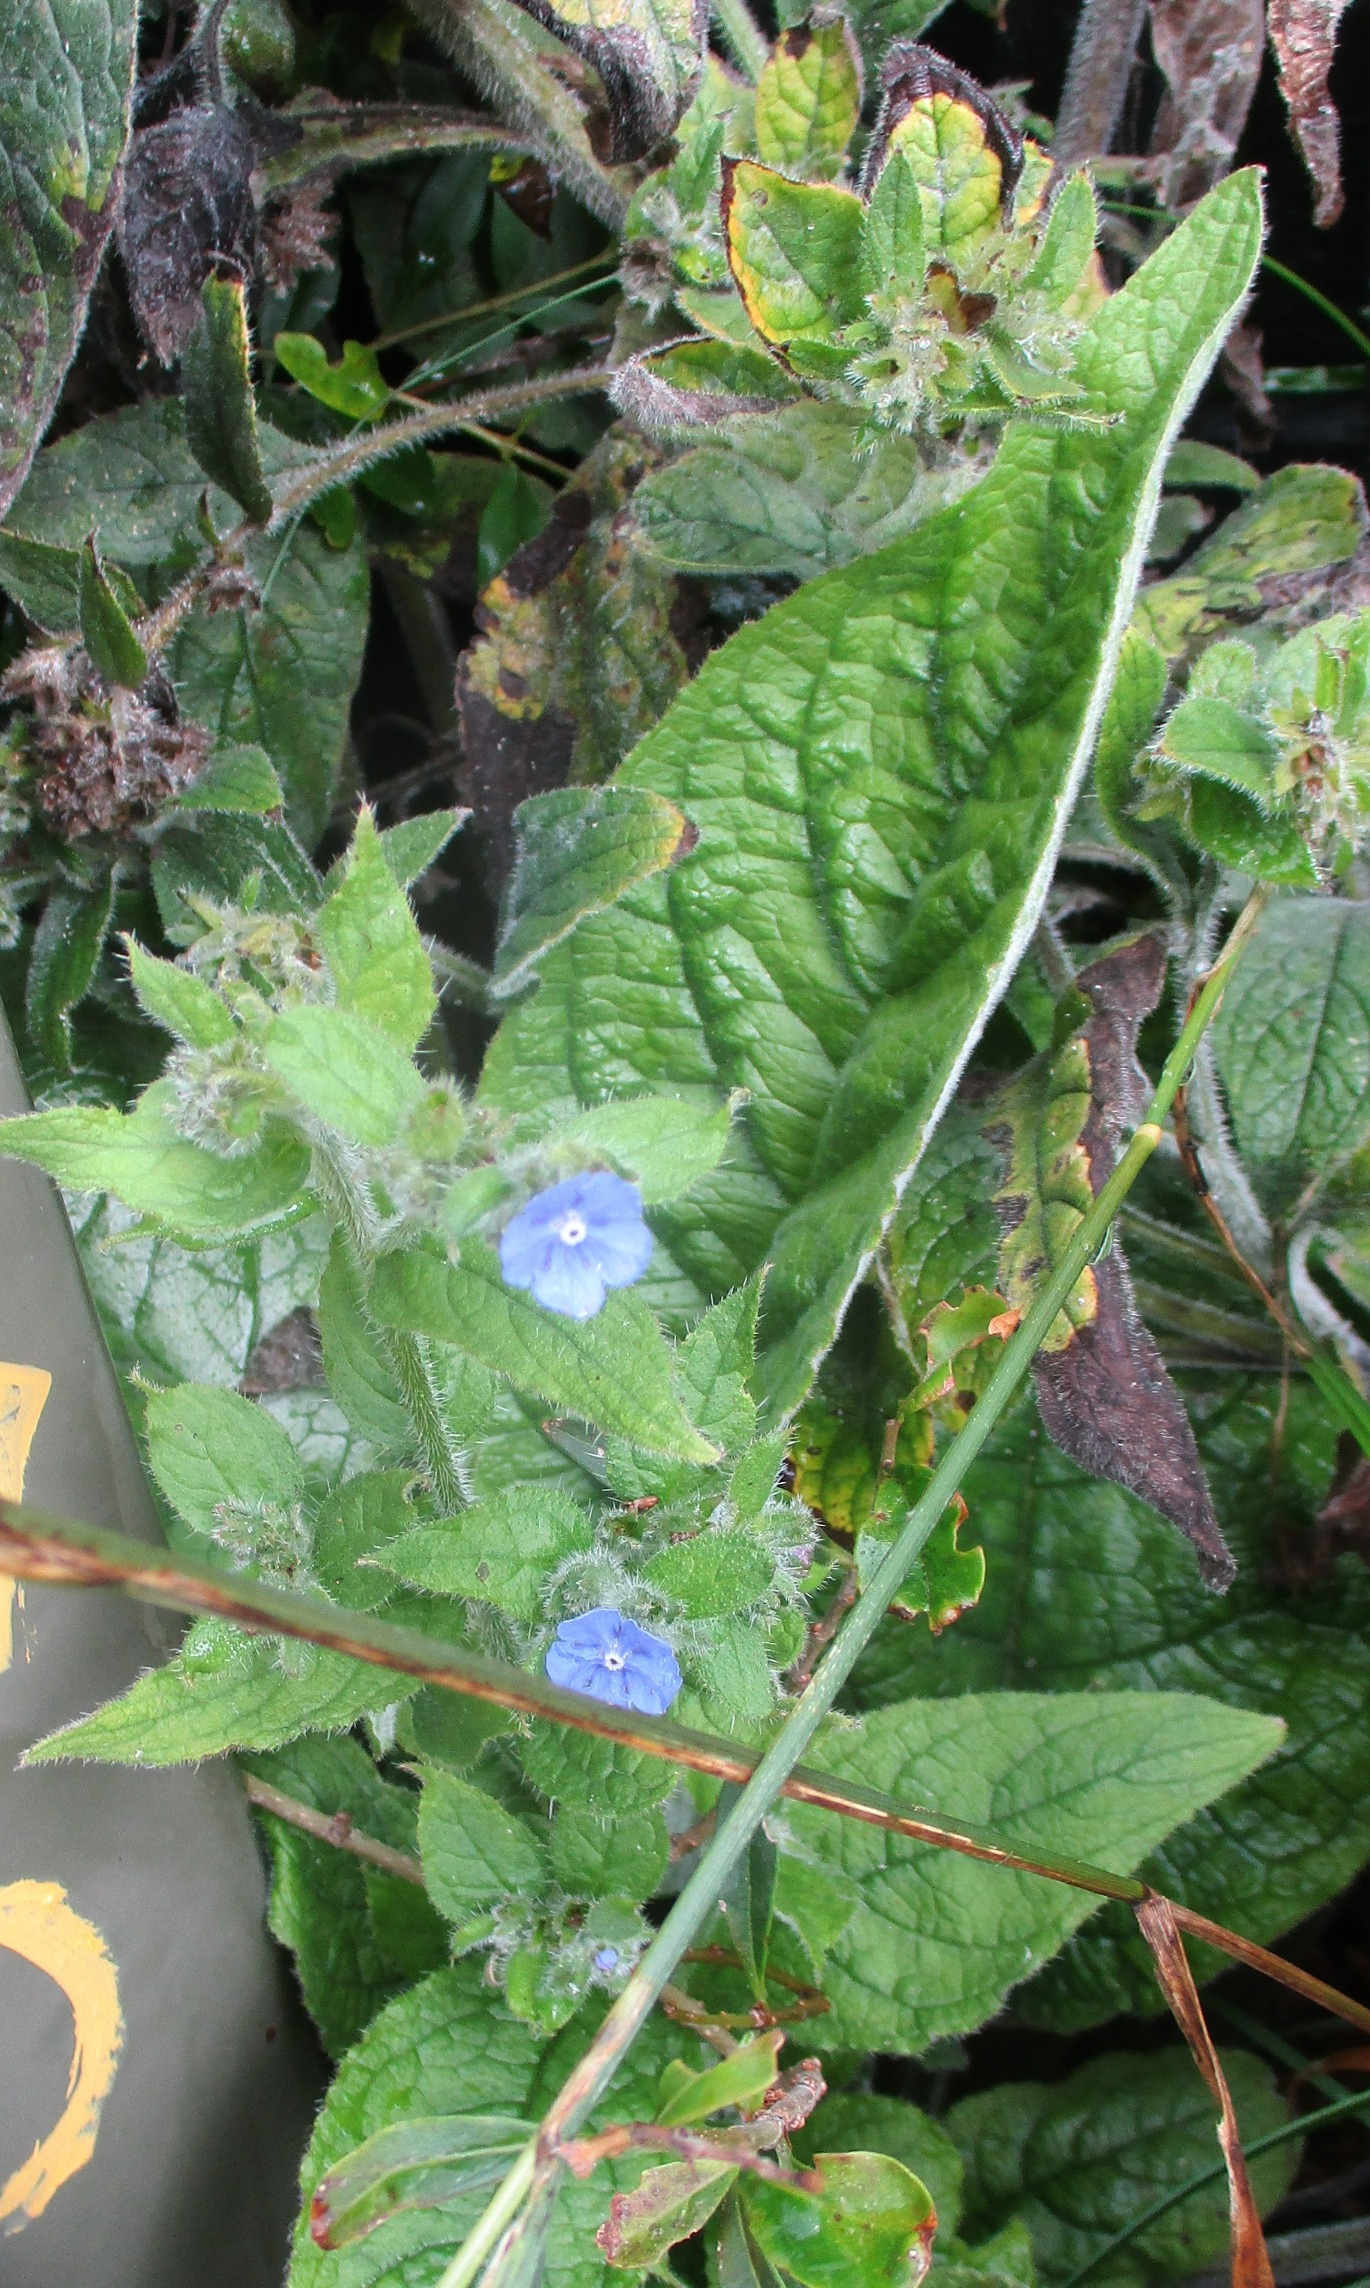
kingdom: Plantae
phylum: Tracheophyta
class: Magnoliopsida
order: Boraginales
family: Boraginaceae
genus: Pentaglottis
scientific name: Pentaglottis sempervirens
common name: Femtunge
